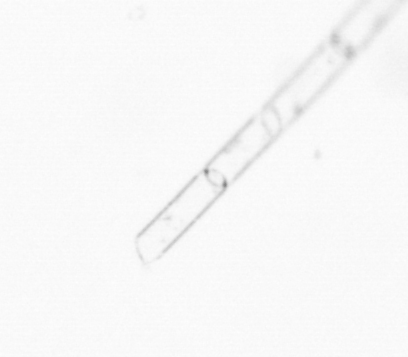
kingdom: Chromista
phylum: Ochrophyta
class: Bacillariophyceae
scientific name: Bacillariophyceae
